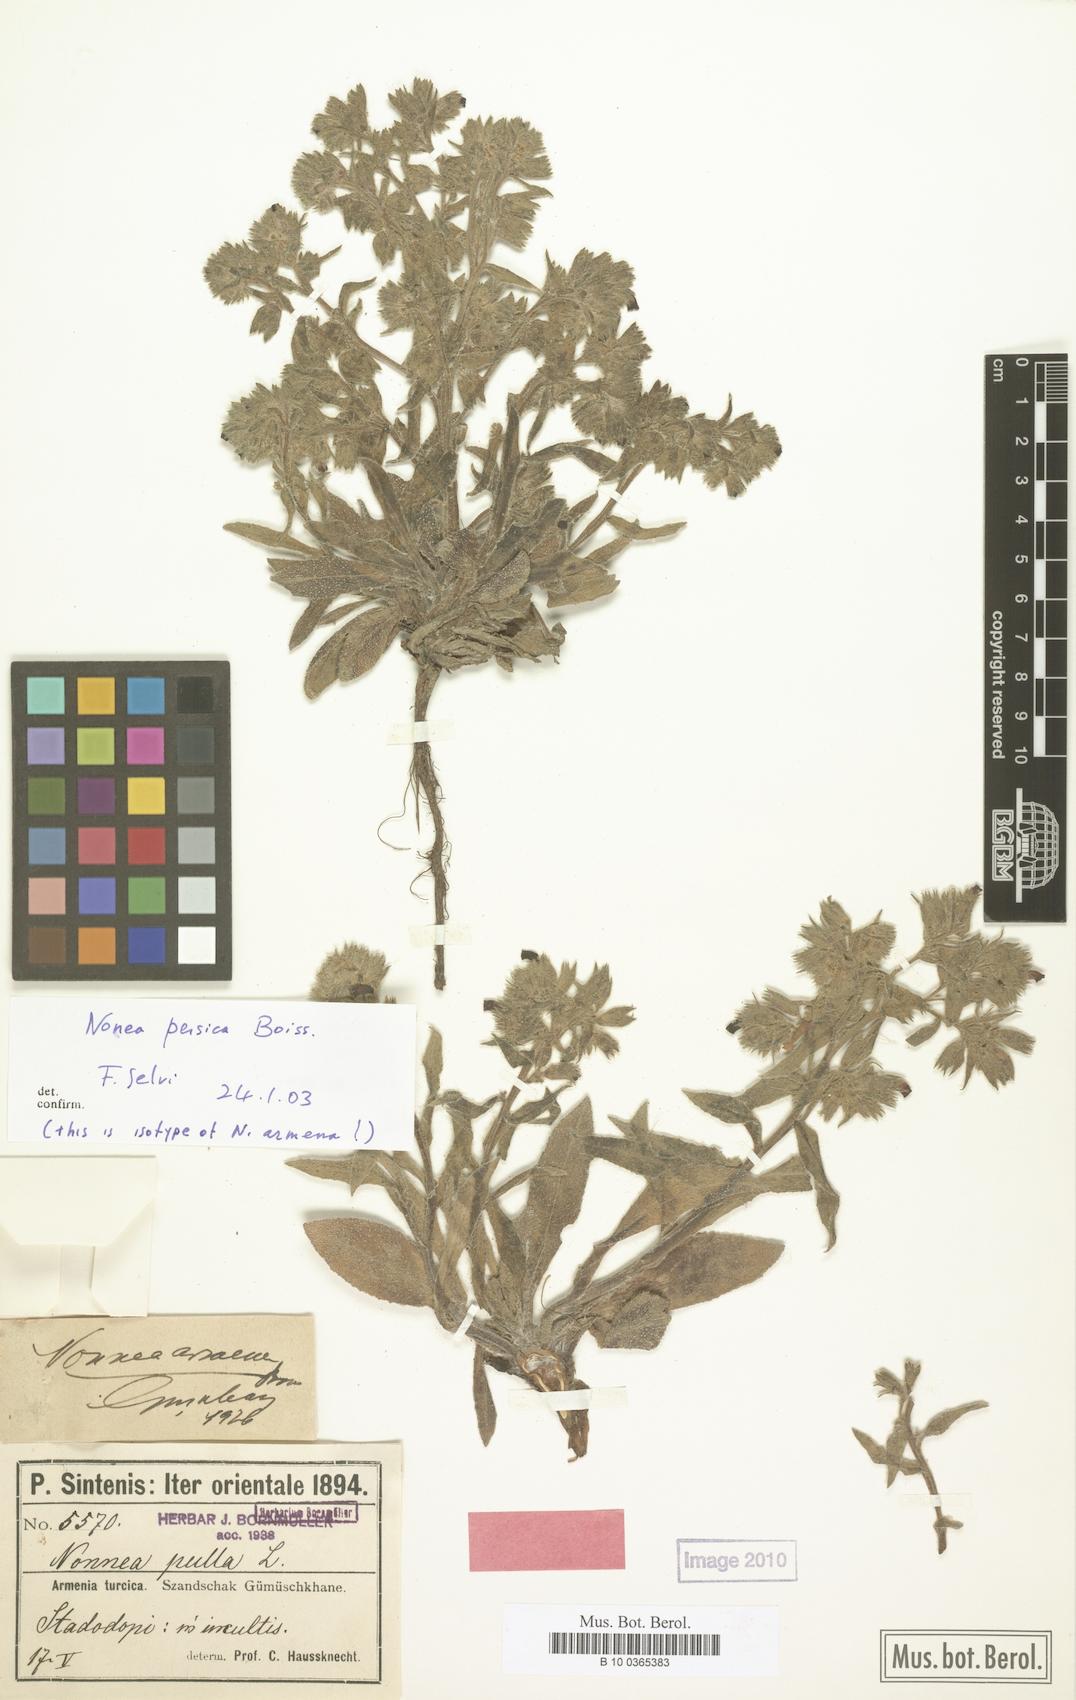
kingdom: Plantae
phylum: Tracheophyta
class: Magnoliopsida
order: Boraginales
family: Boraginaceae
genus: Nonea
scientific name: Nonea persica
